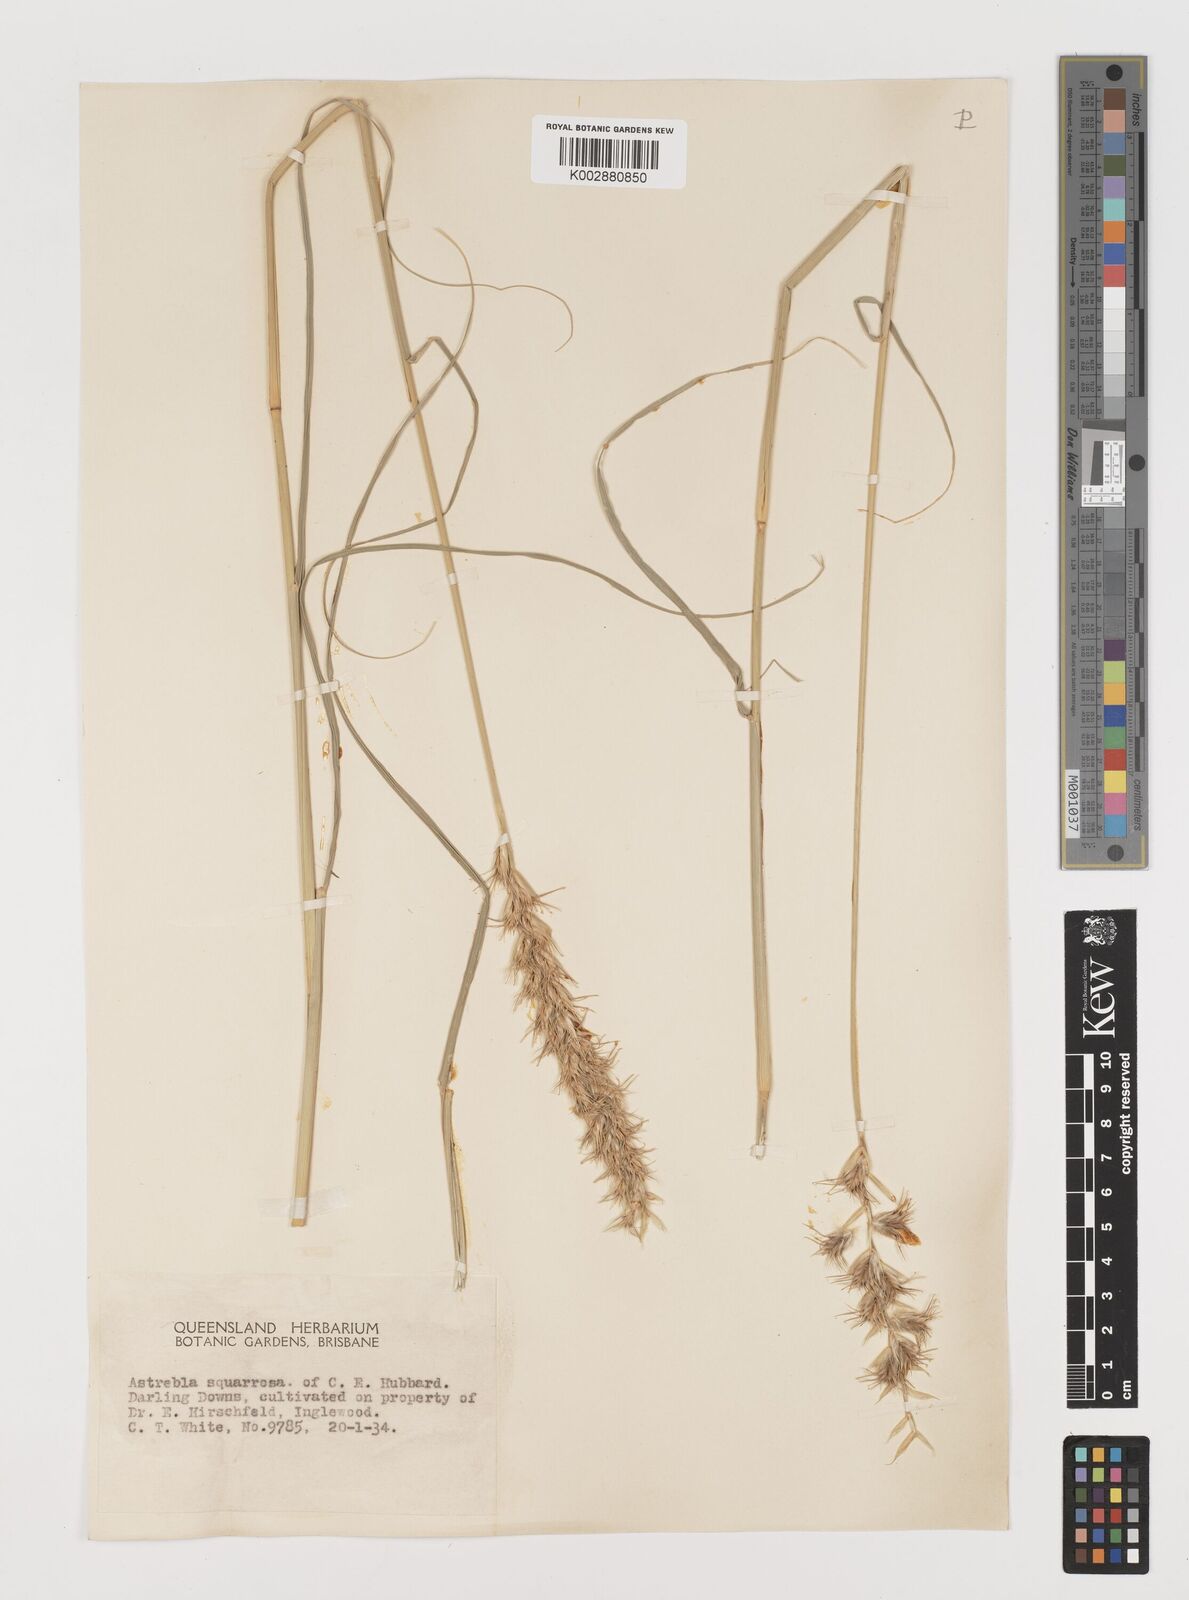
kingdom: Plantae
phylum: Tracheophyta
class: Liliopsida
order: Poales
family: Poaceae
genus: Astrebla
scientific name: Astrebla squarrosa
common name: Wheat-ear mitchell grass
